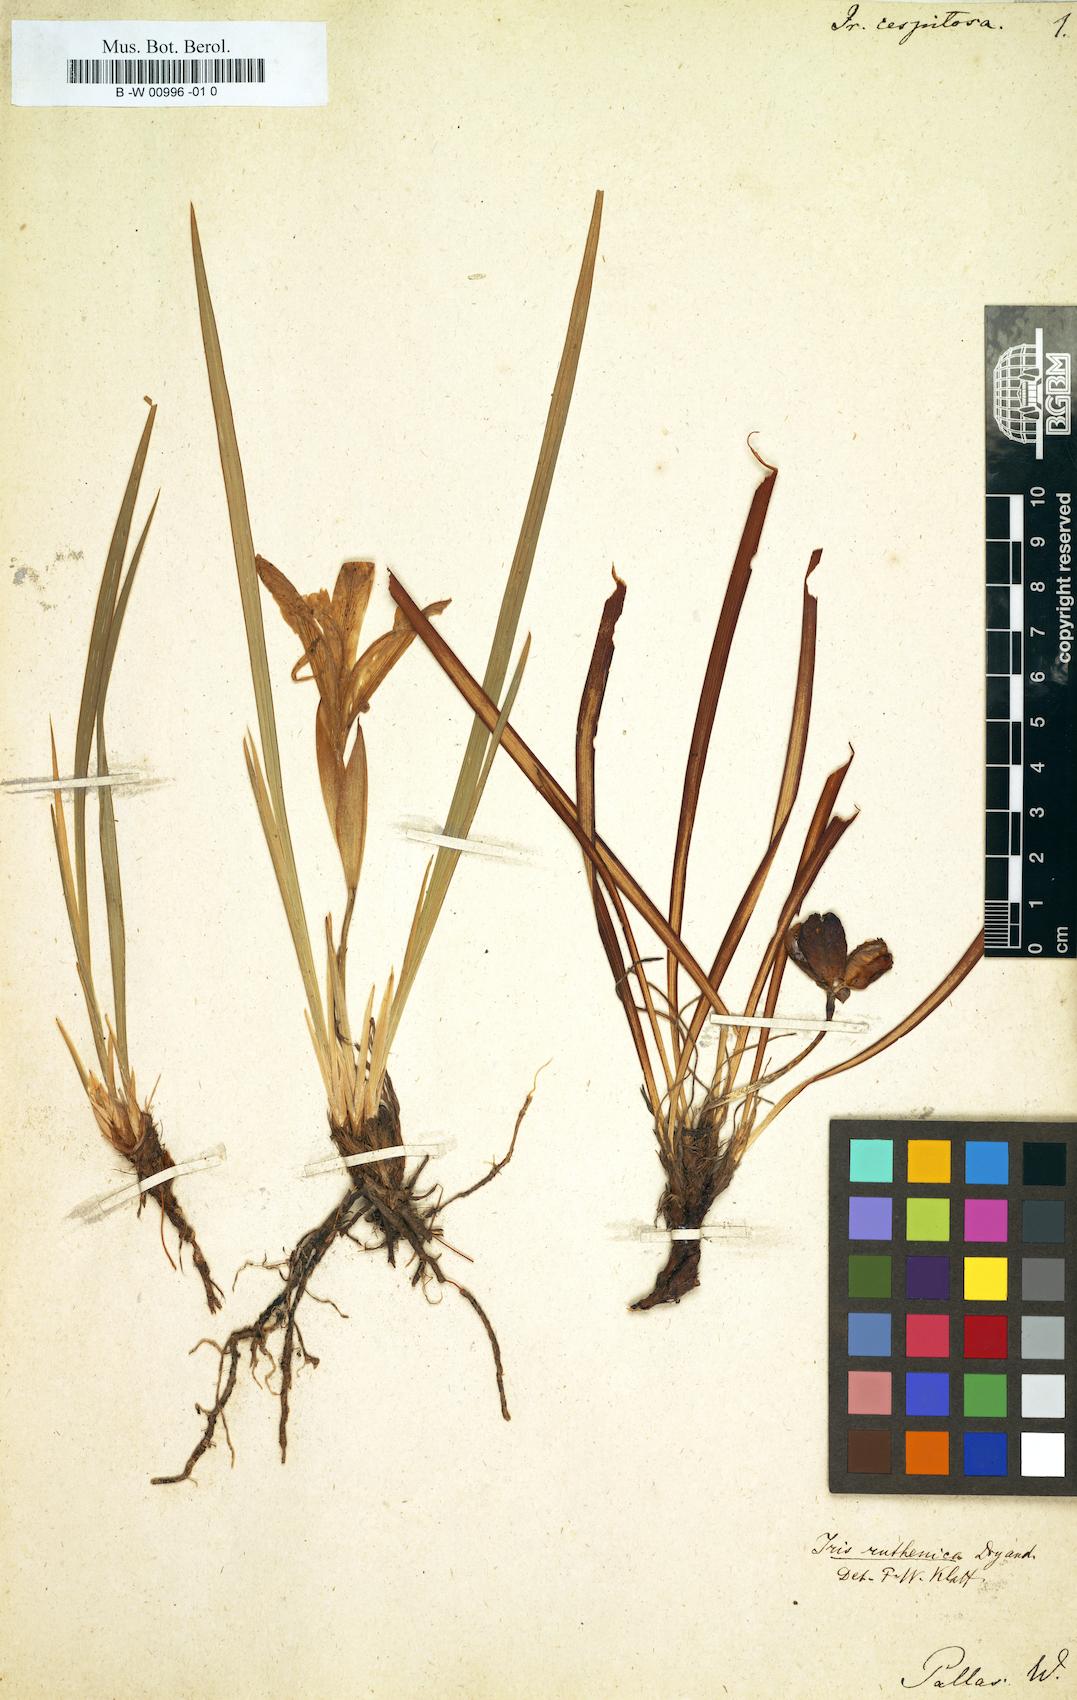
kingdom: Plantae
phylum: Tracheophyta
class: Liliopsida
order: Asparagales
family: Iridaceae
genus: Iris
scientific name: Iris ruthenica
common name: Purple-bract iris
